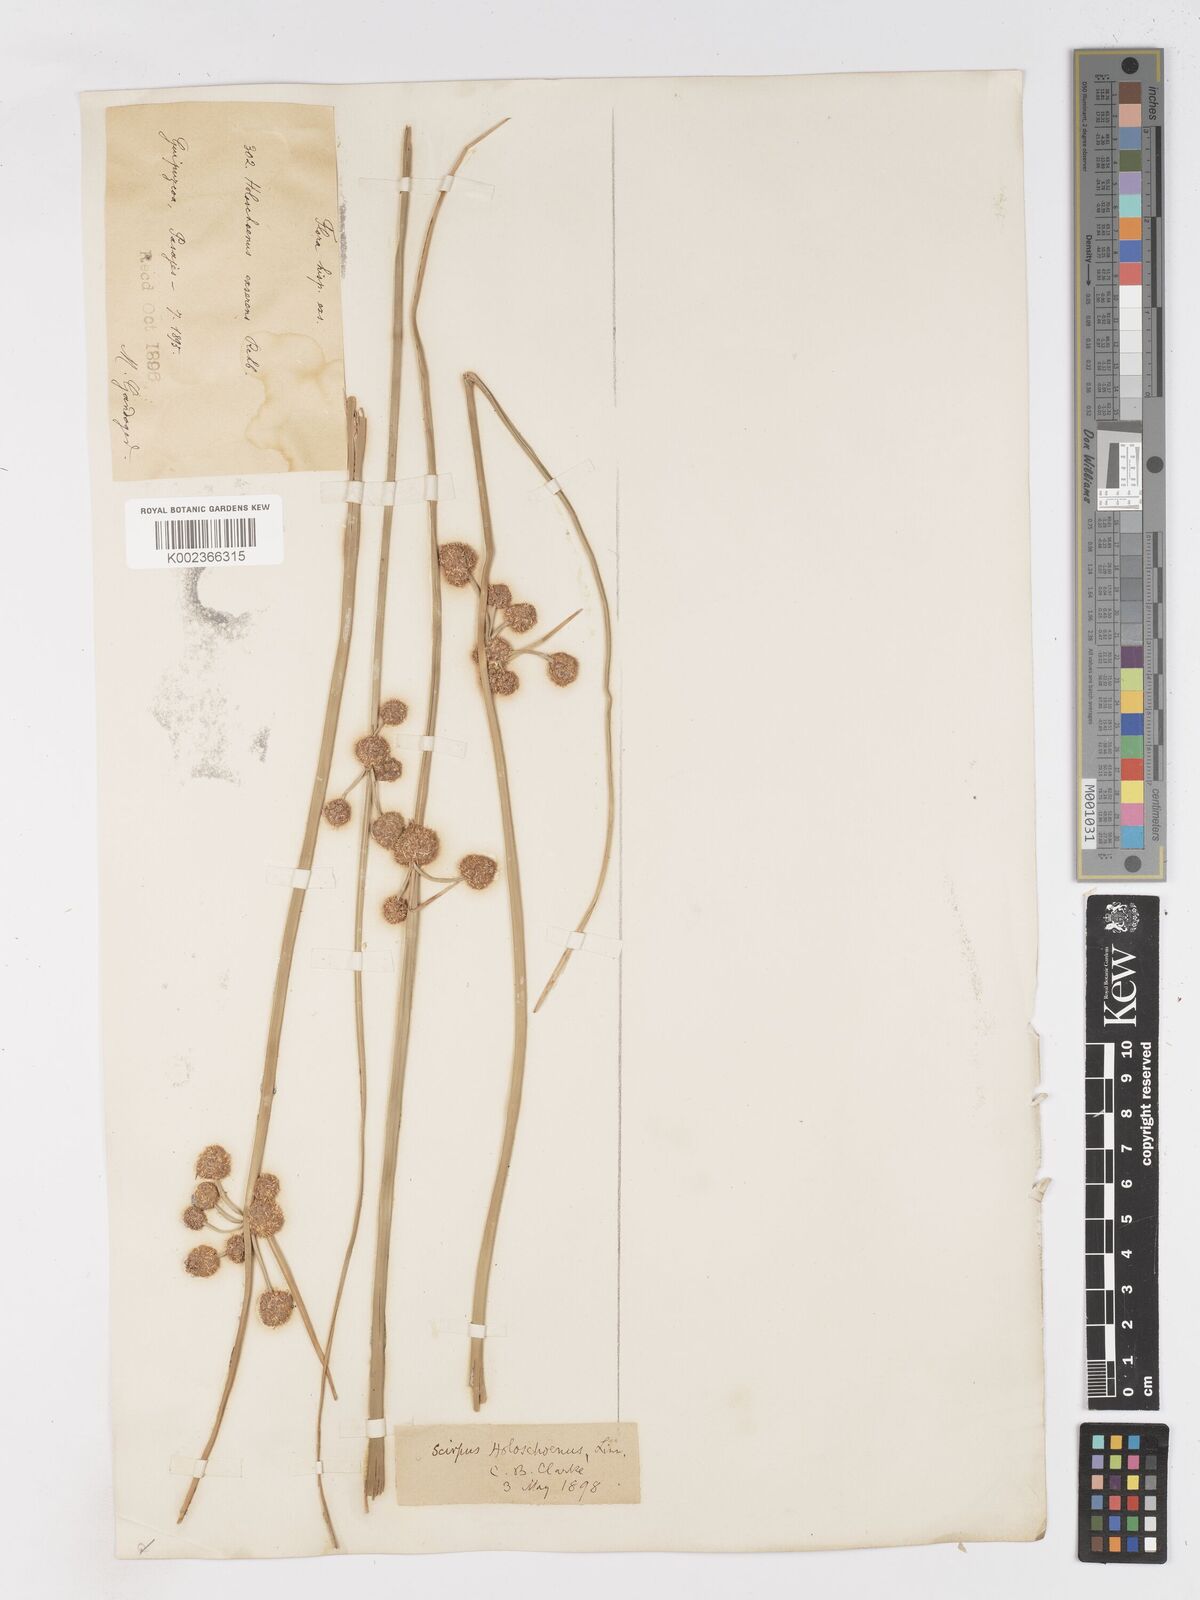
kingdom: Plantae
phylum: Tracheophyta
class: Liliopsida
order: Poales
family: Cyperaceae
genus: Scirpoides
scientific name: Scirpoides holoschoenus
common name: Round-headed club-rush
